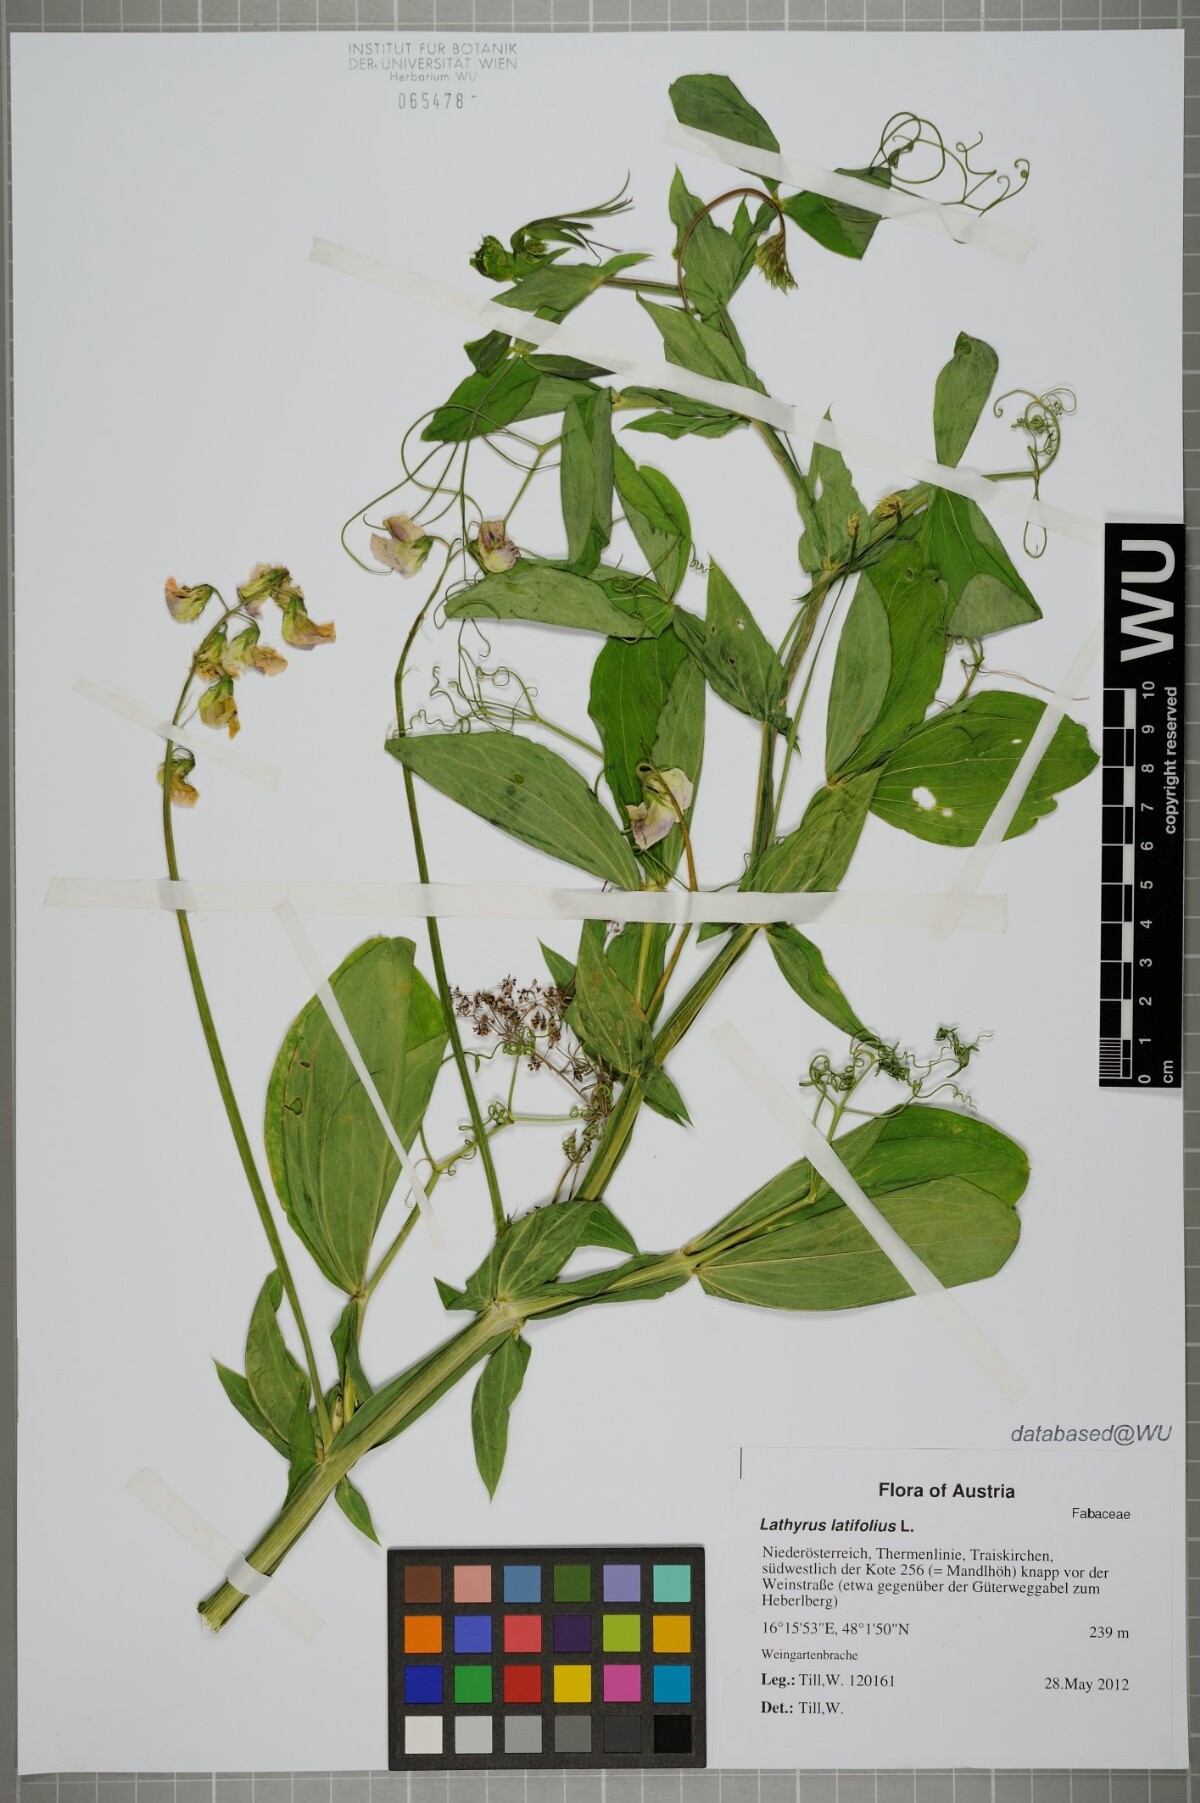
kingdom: Plantae
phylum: Tracheophyta
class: Magnoliopsida
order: Fabales
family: Fabaceae
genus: Lathyrus
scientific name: Lathyrus latifolius
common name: Perennial pea
